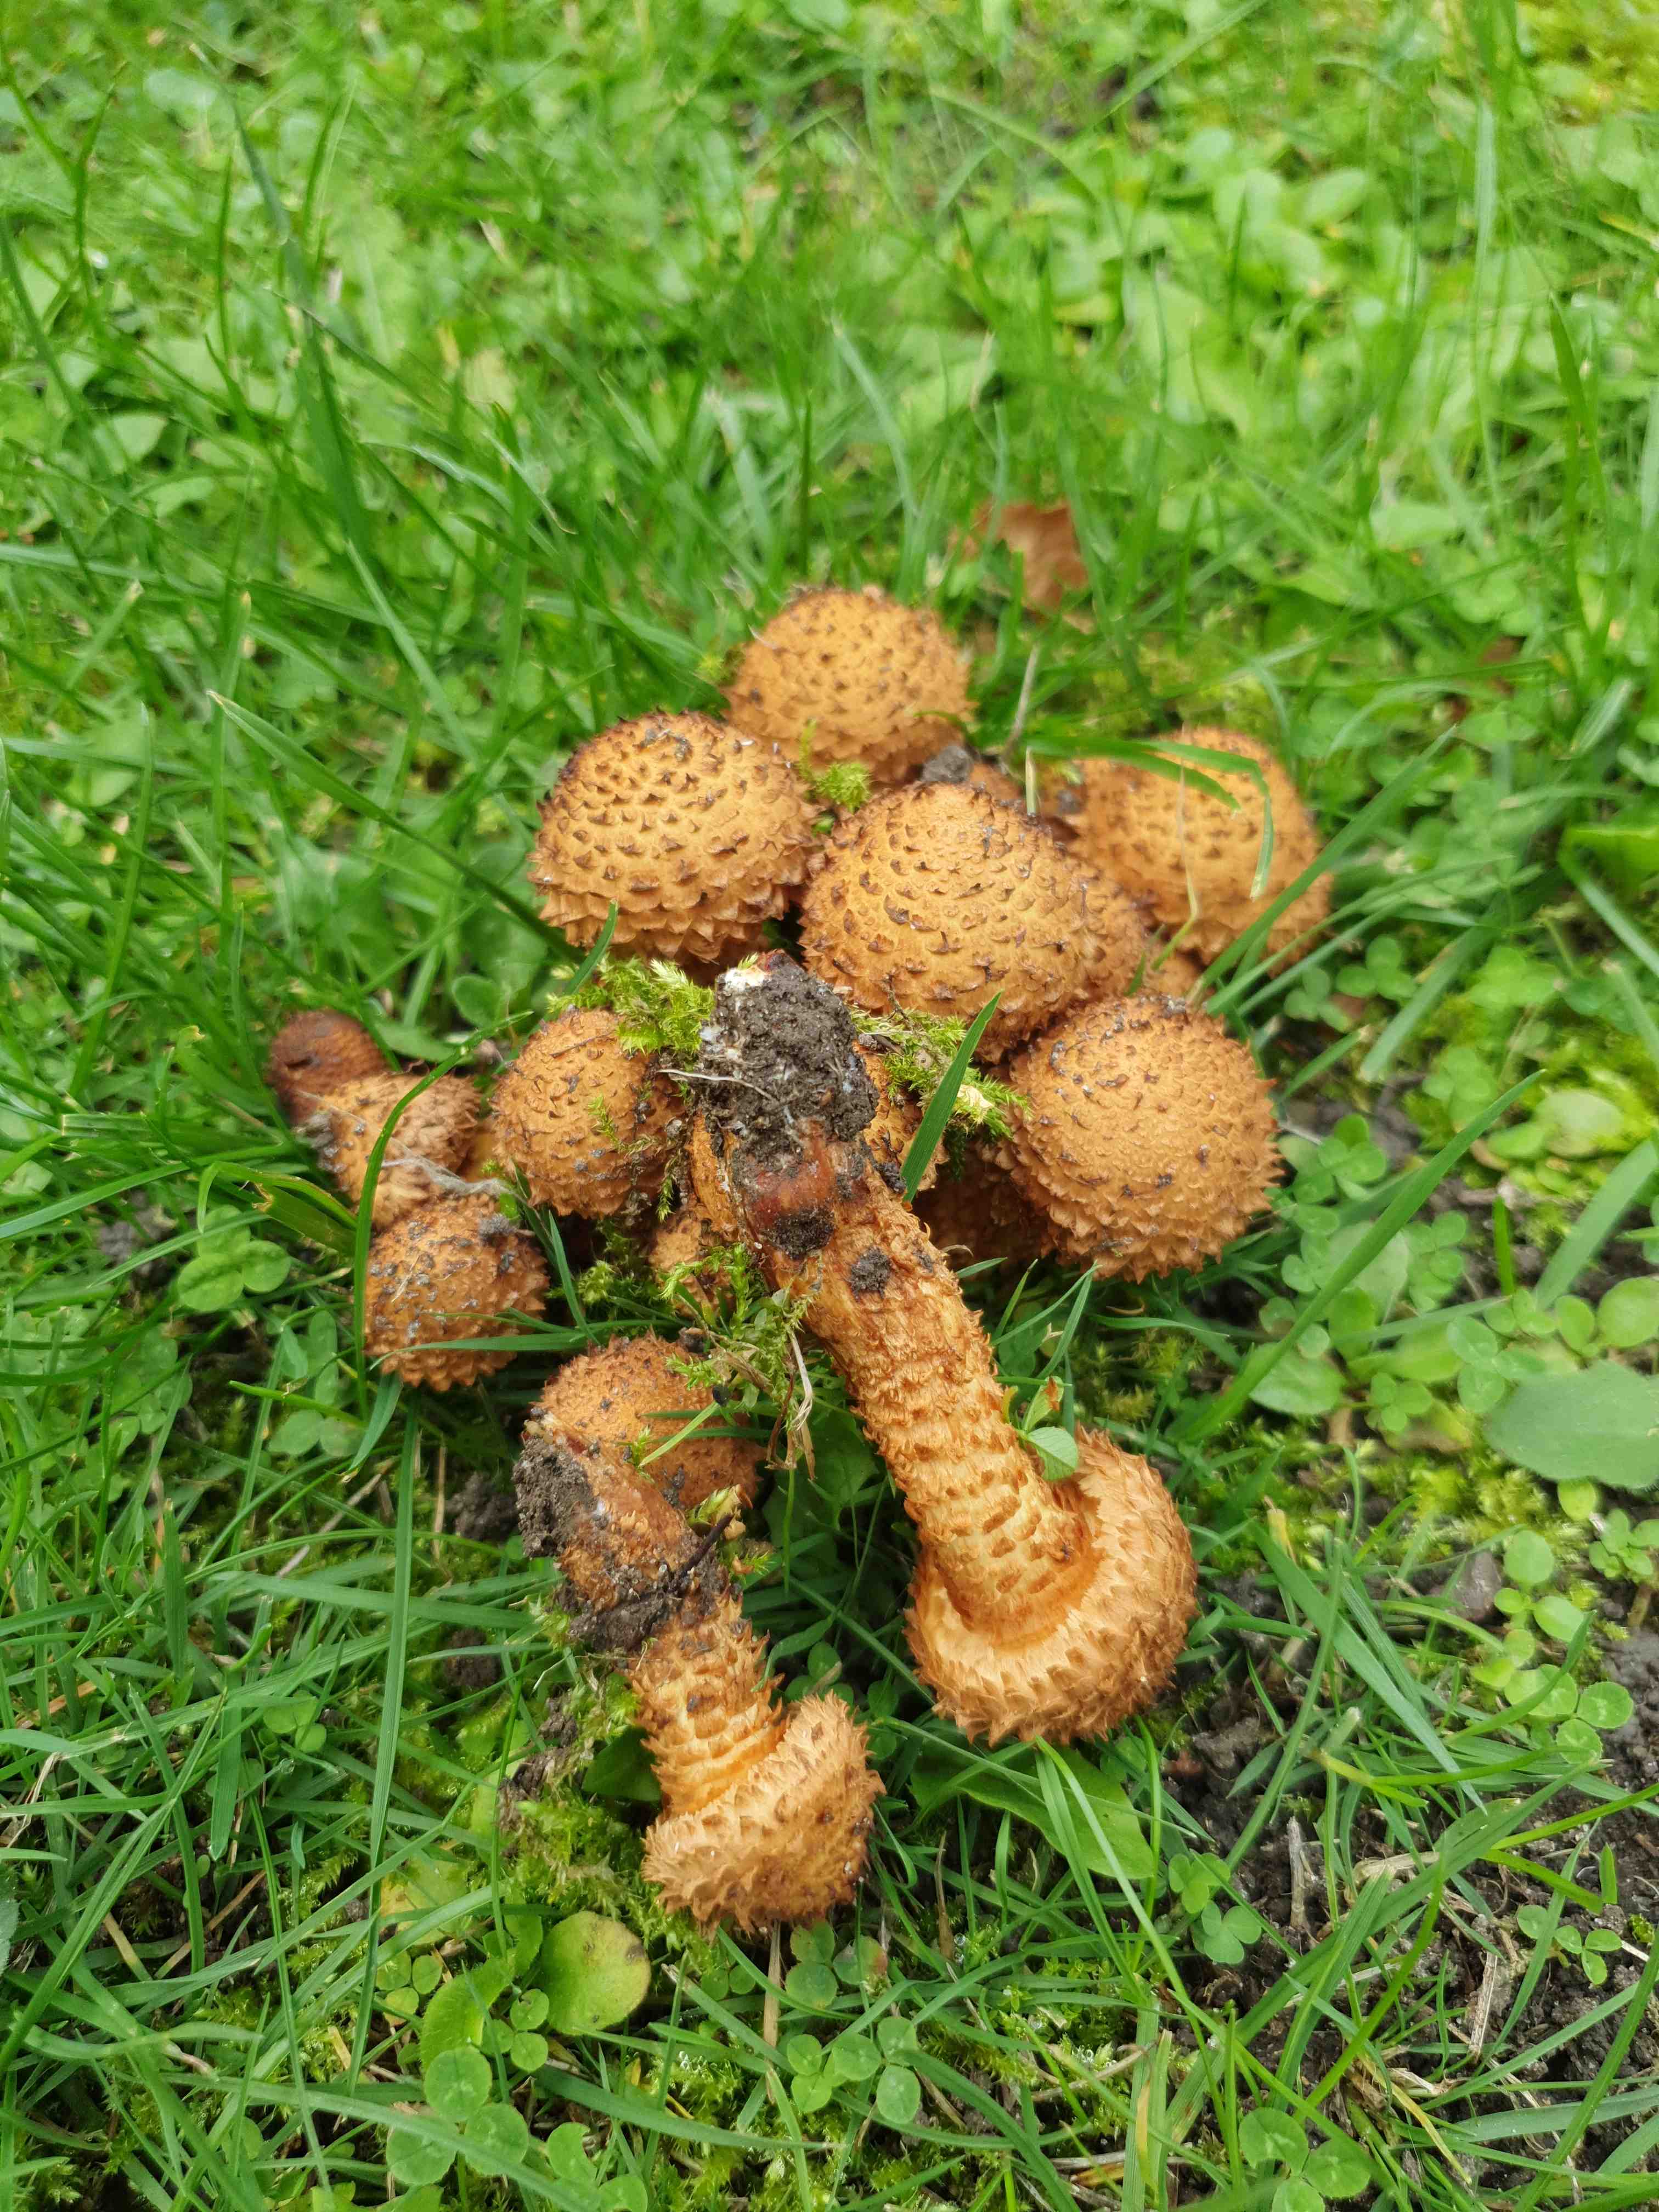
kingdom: Fungi
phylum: Basidiomycota
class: Agaricomycetes
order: Agaricales
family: Strophariaceae
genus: Pholiota
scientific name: Pholiota squarrosa
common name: krumskællet skælhat
